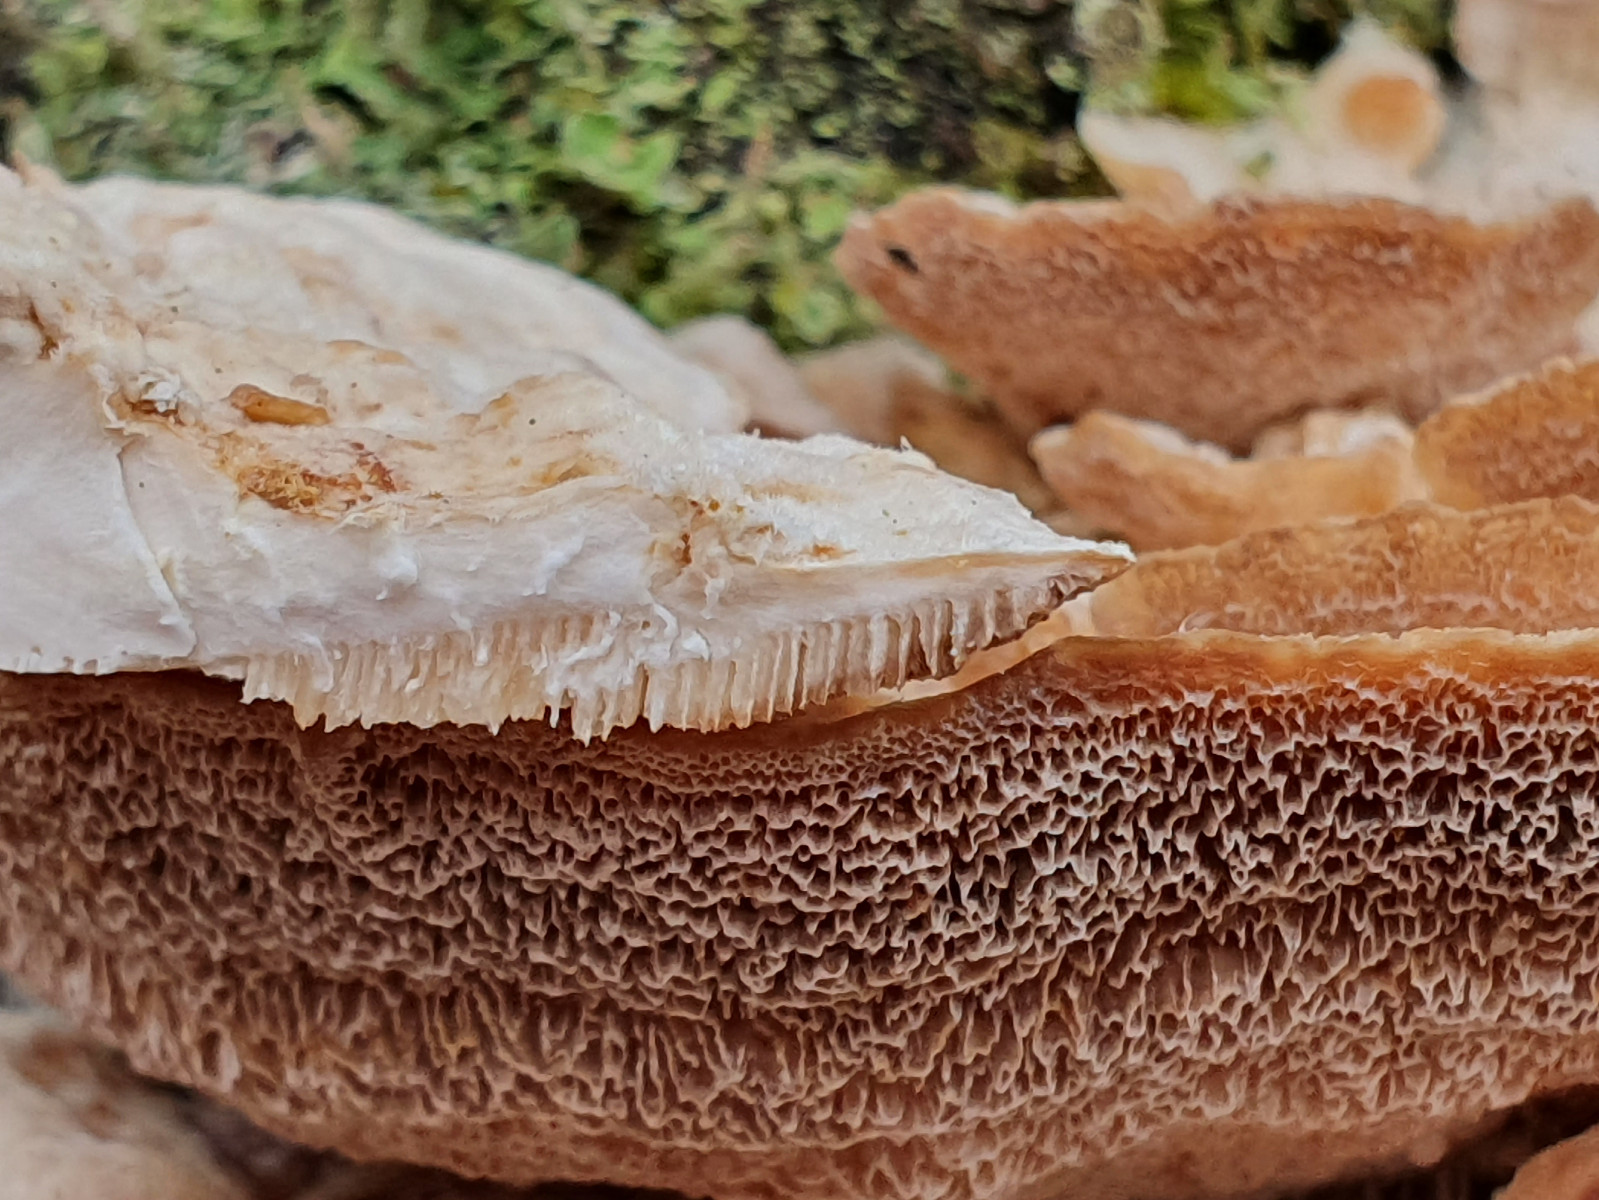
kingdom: Fungi
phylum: Basidiomycota
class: Agaricomycetes
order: Polyporales
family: Polyporaceae
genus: Trametes
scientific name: Trametes ochracea
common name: bæltet læderporesvamp
